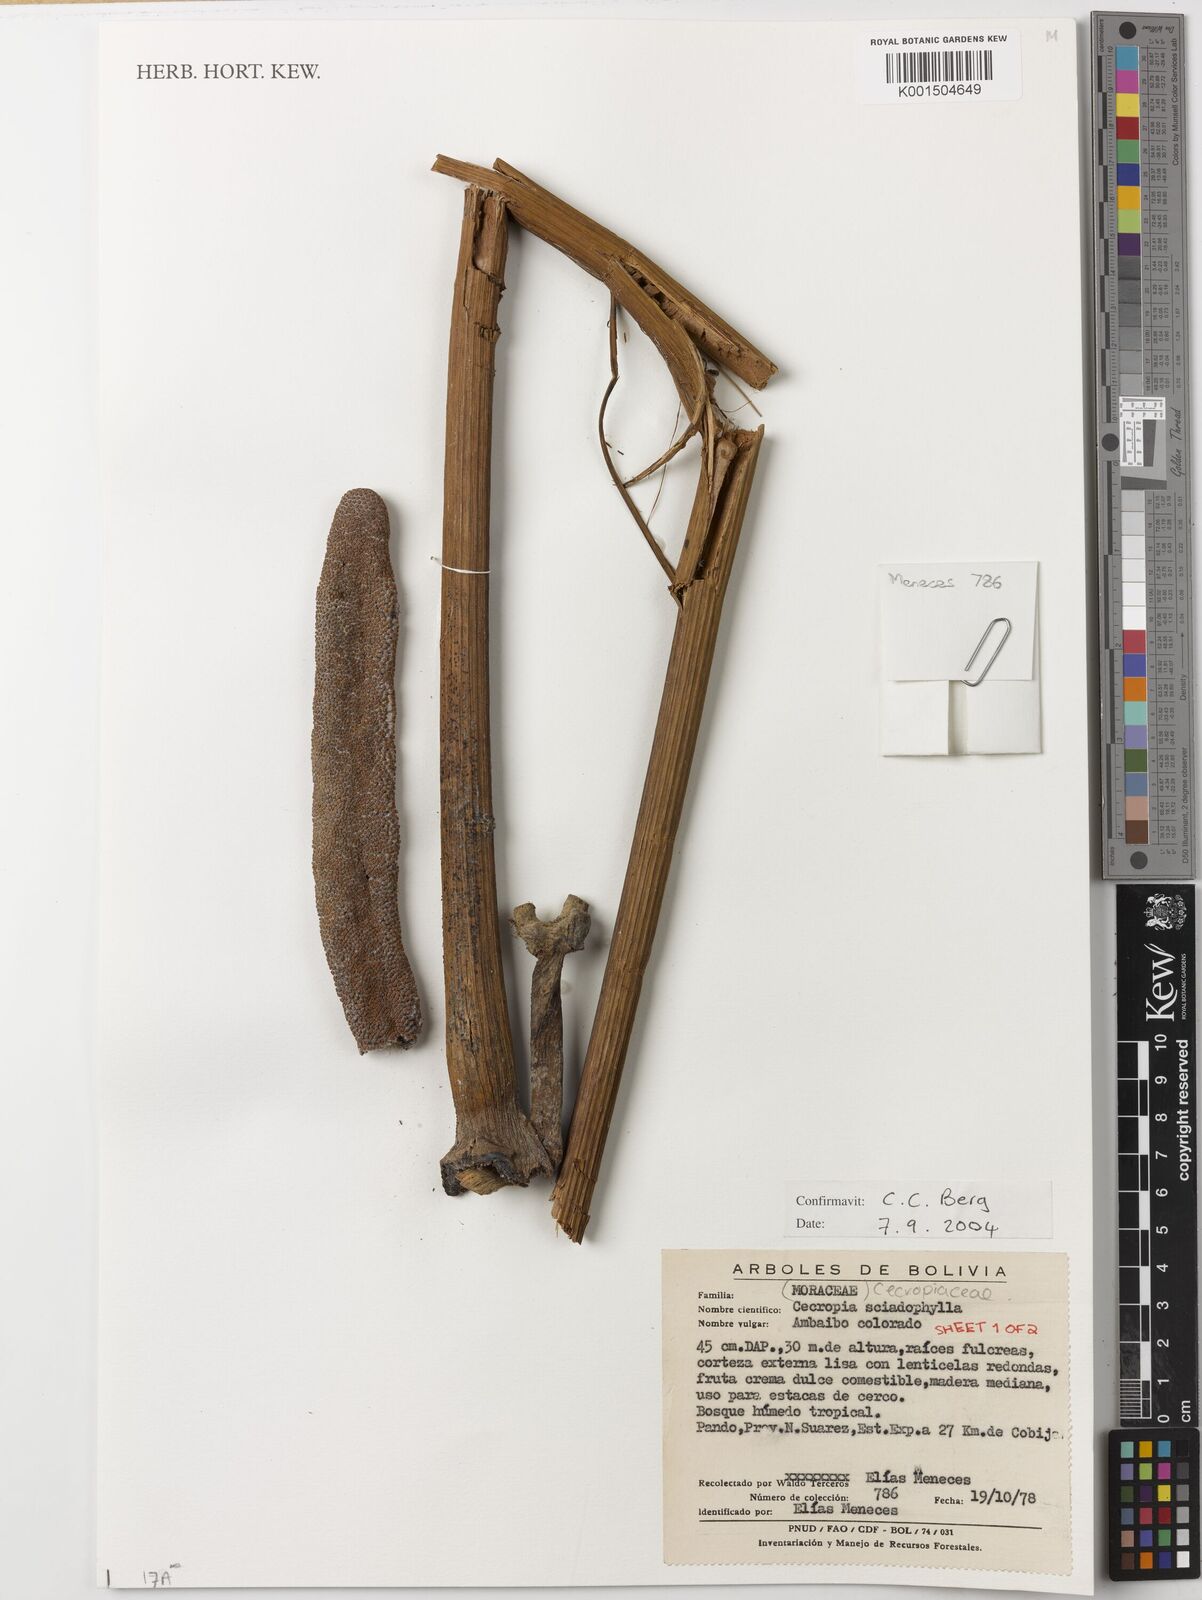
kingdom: Plantae
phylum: Tracheophyta
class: Magnoliopsida
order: Rosales
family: Urticaceae
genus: Cecropia
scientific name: Cecropia sciadophylla
